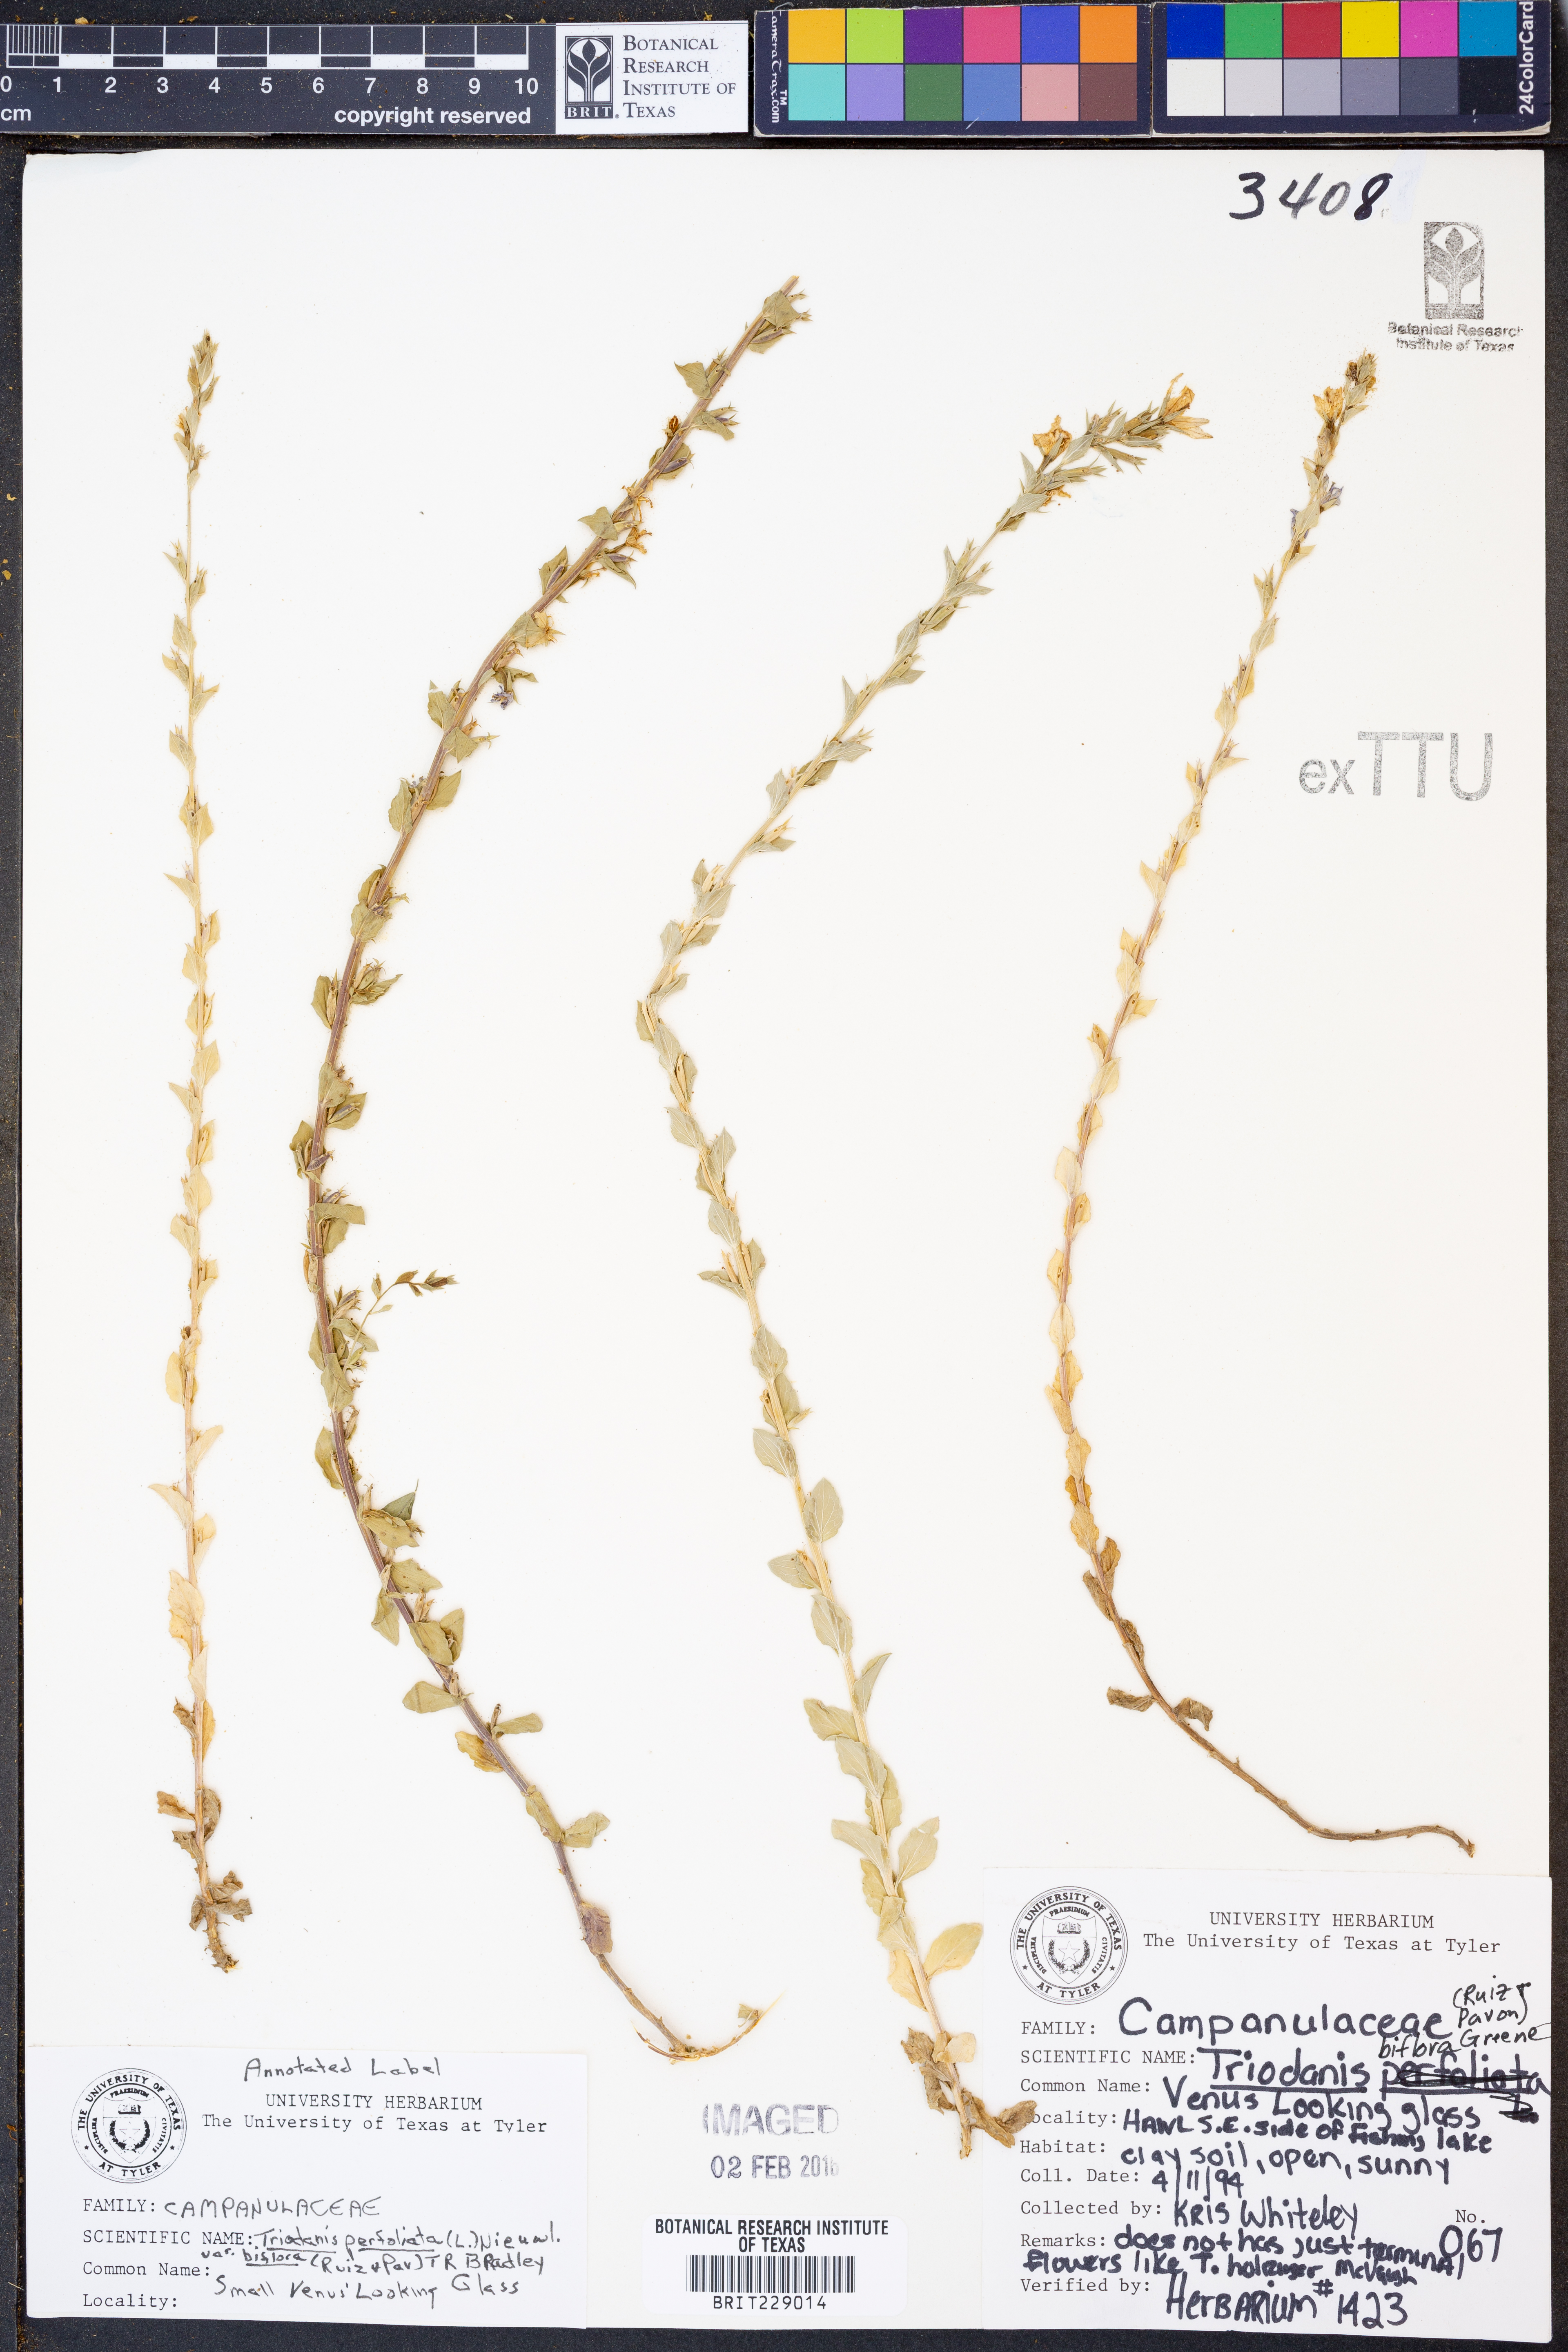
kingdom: Plantae
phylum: Tracheophyta
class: Magnoliopsida
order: Asterales
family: Campanulaceae
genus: Triodanis
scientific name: Triodanis perfoliata
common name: Clasping venus' looking-glass
